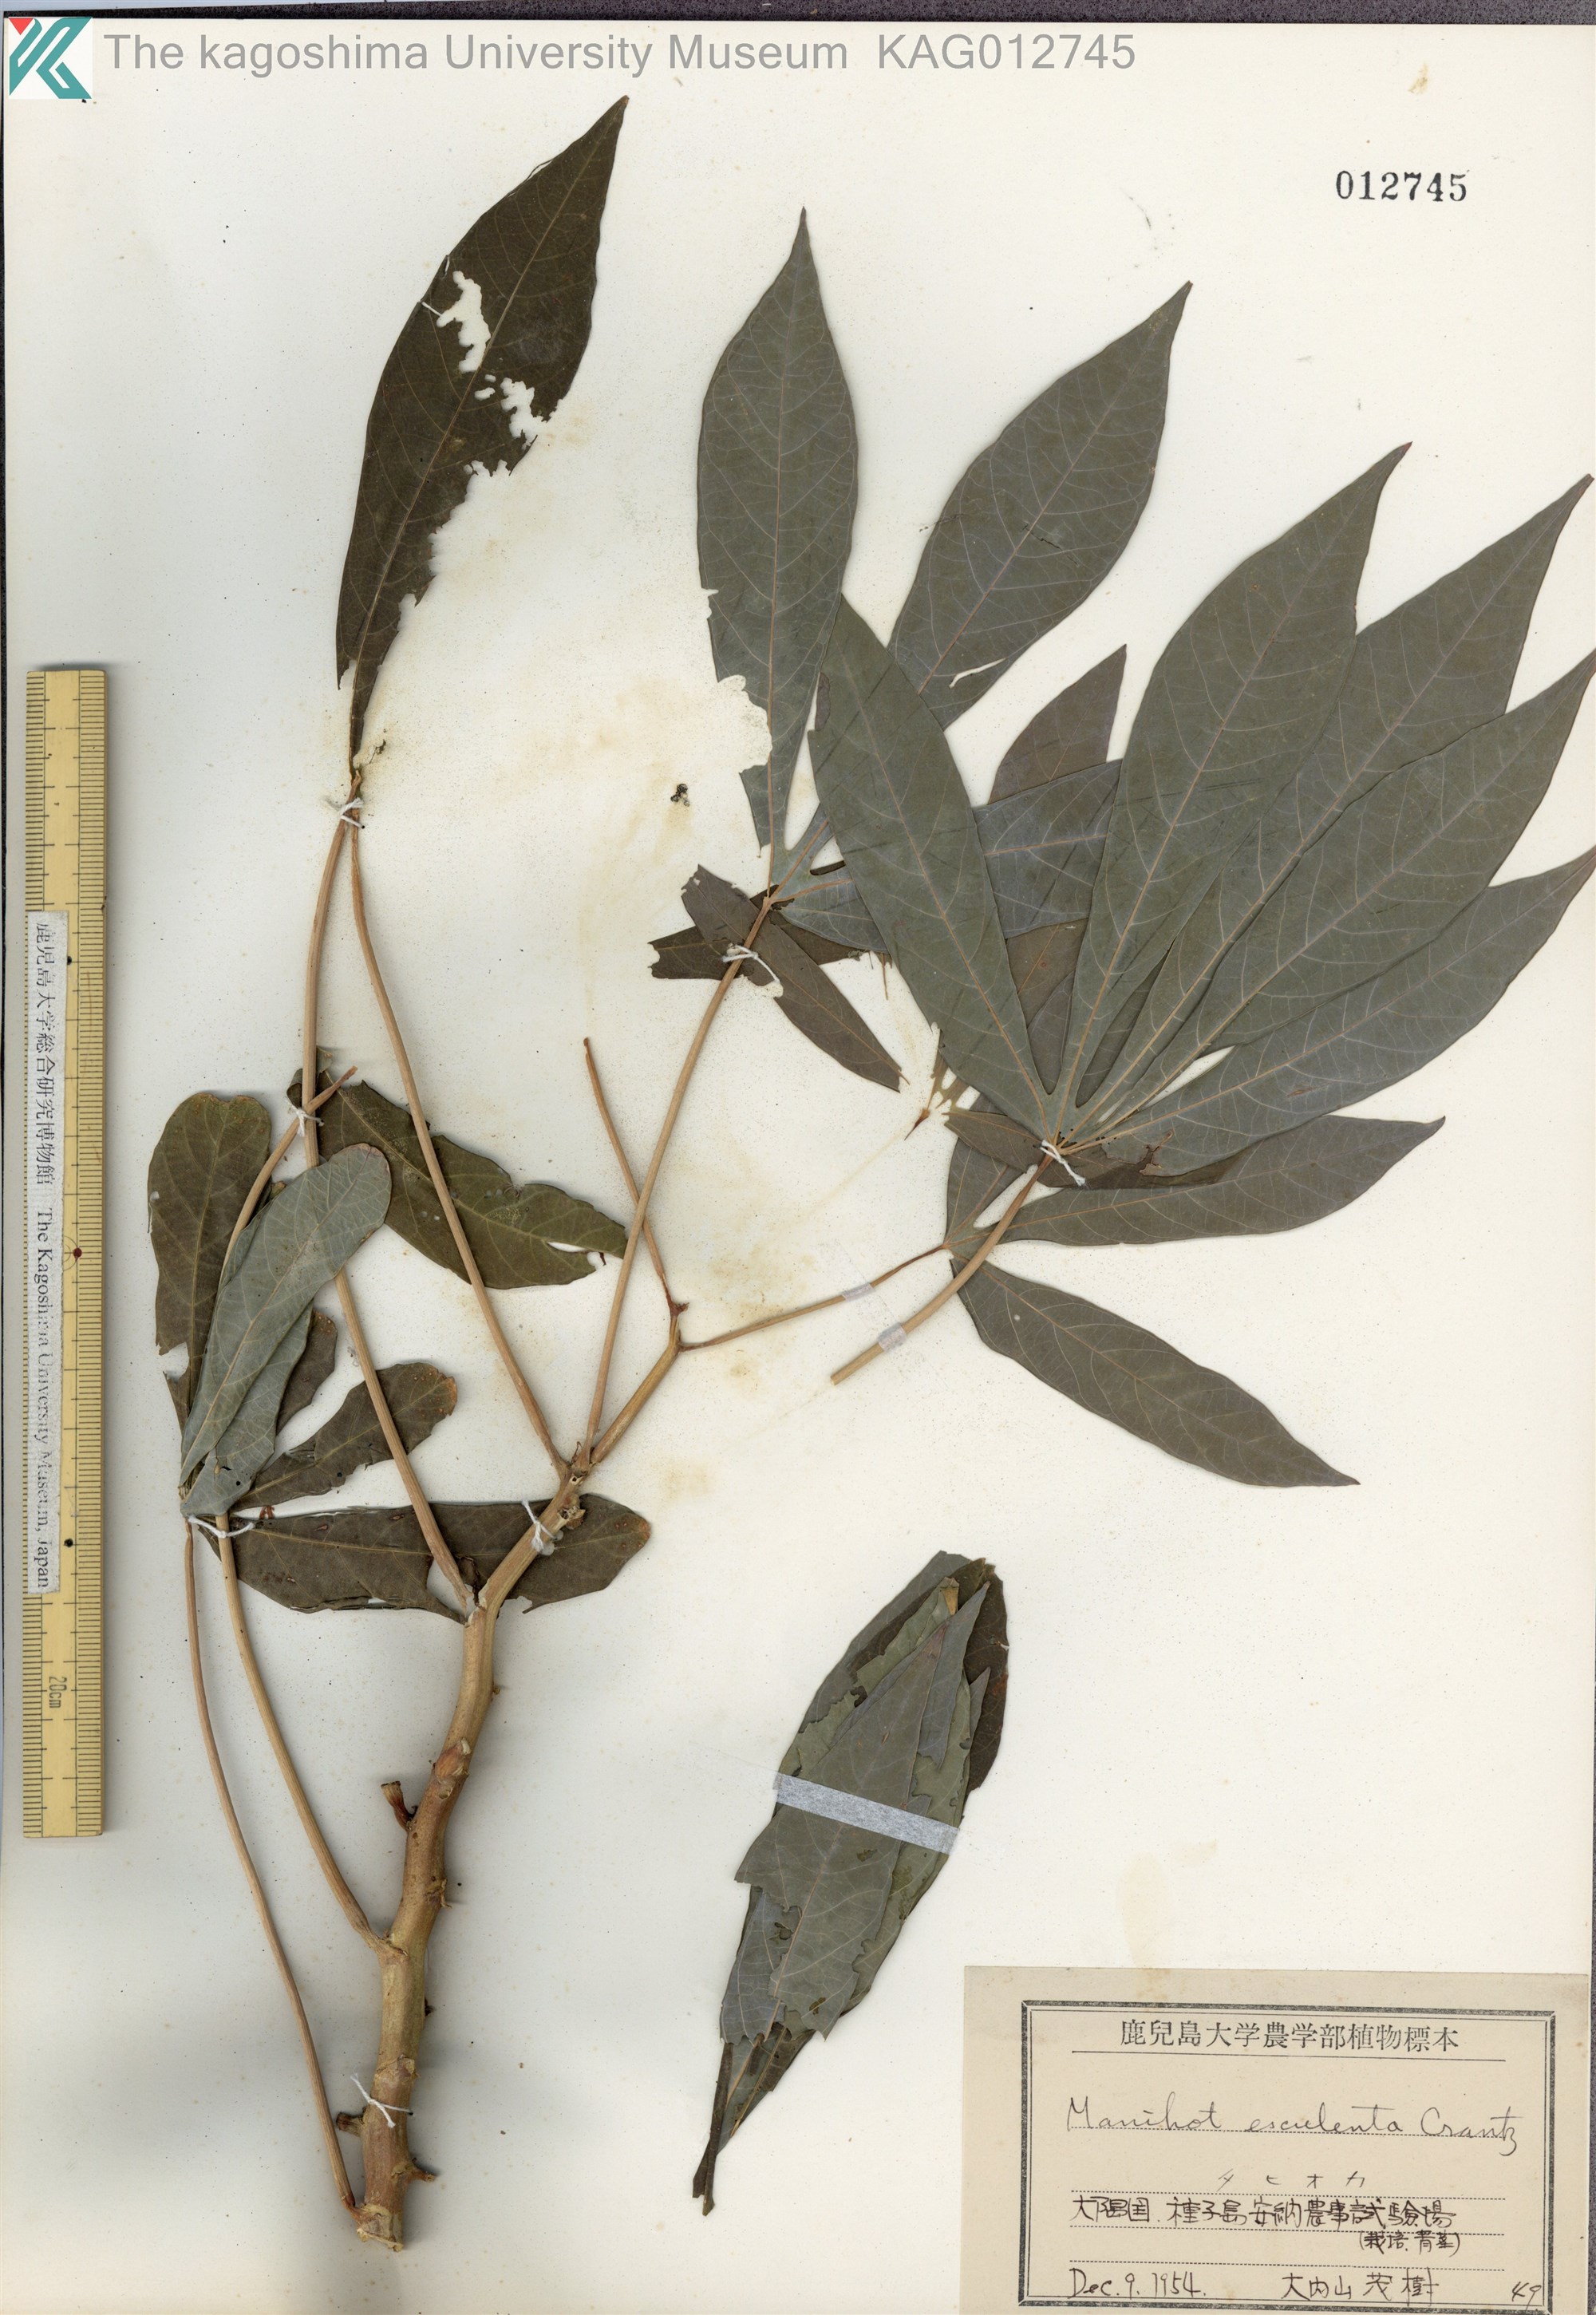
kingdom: Plantae
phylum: Tracheophyta
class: Magnoliopsida
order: Malpighiales
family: Euphorbiaceae
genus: Manihot
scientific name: Manihot esculenta
